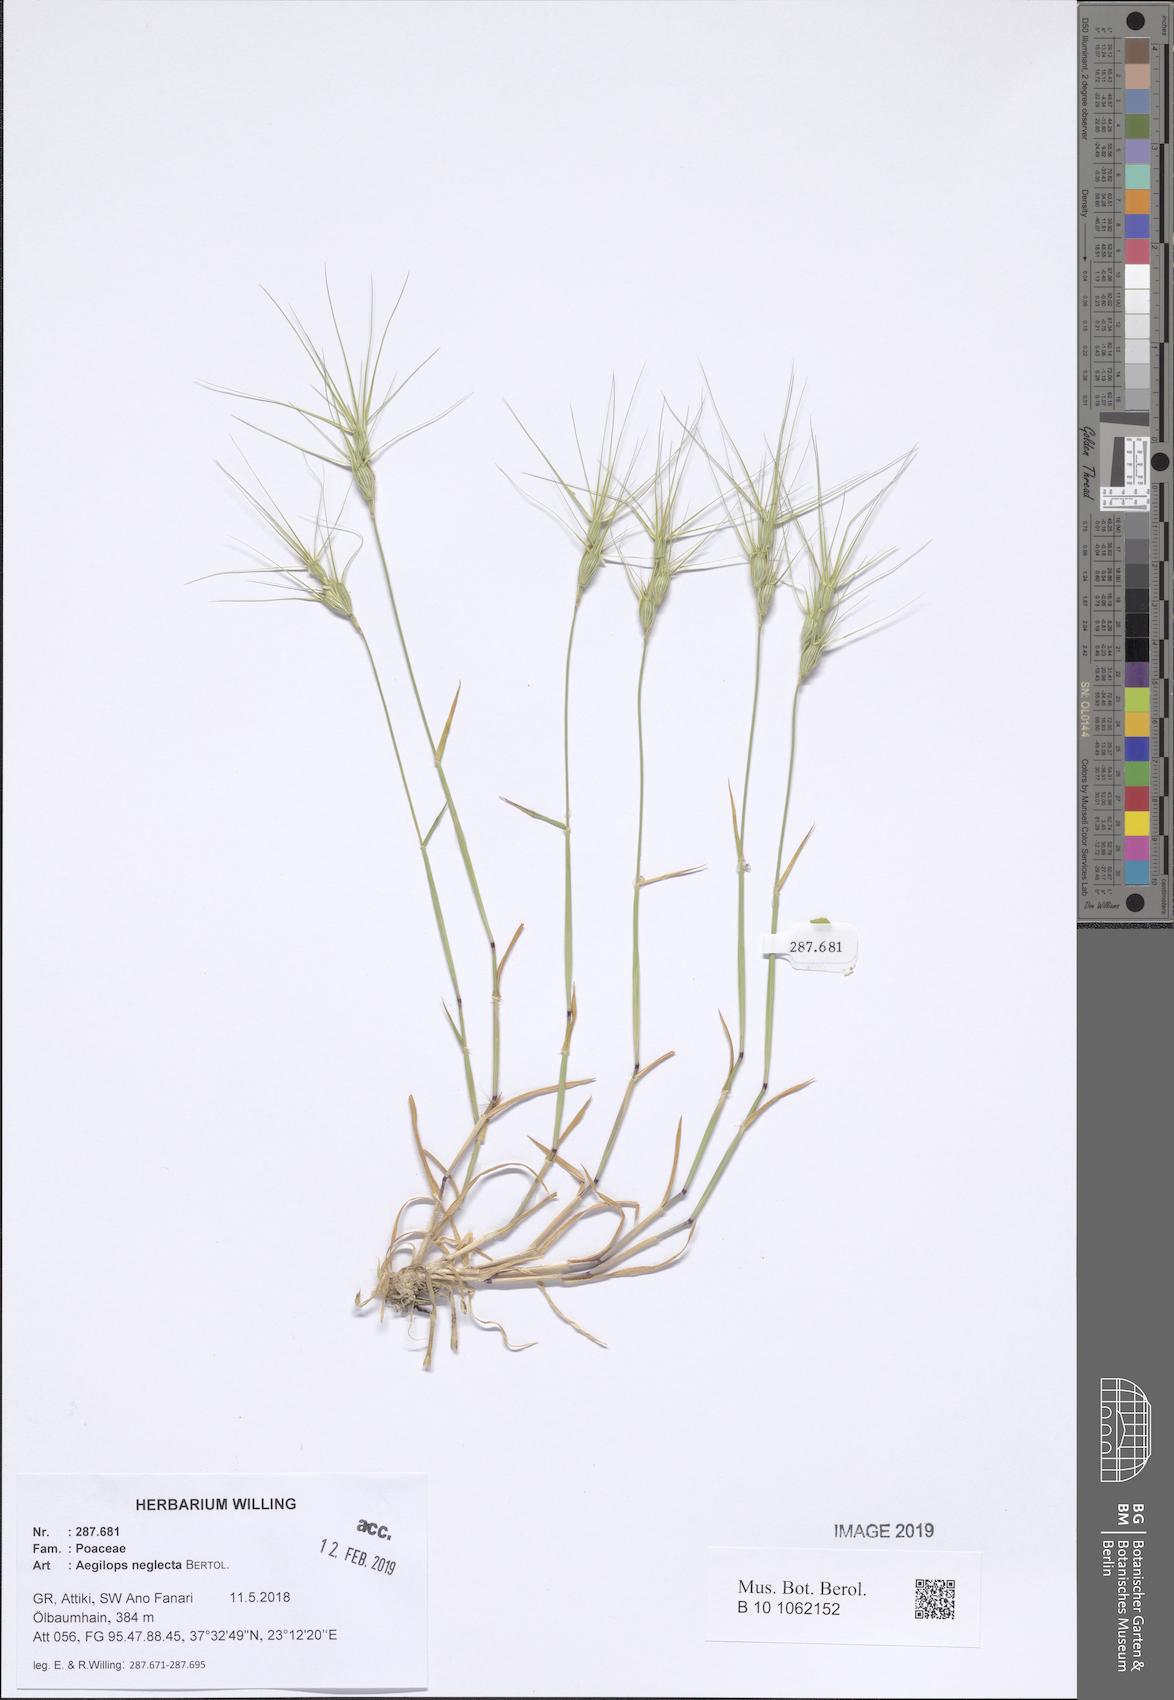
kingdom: Plantae
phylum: Tracheophyta
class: Liliopsida
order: Poales
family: Poaceae
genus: Aegilops
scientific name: Aegilops neglecta
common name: Three-awn goat grass
